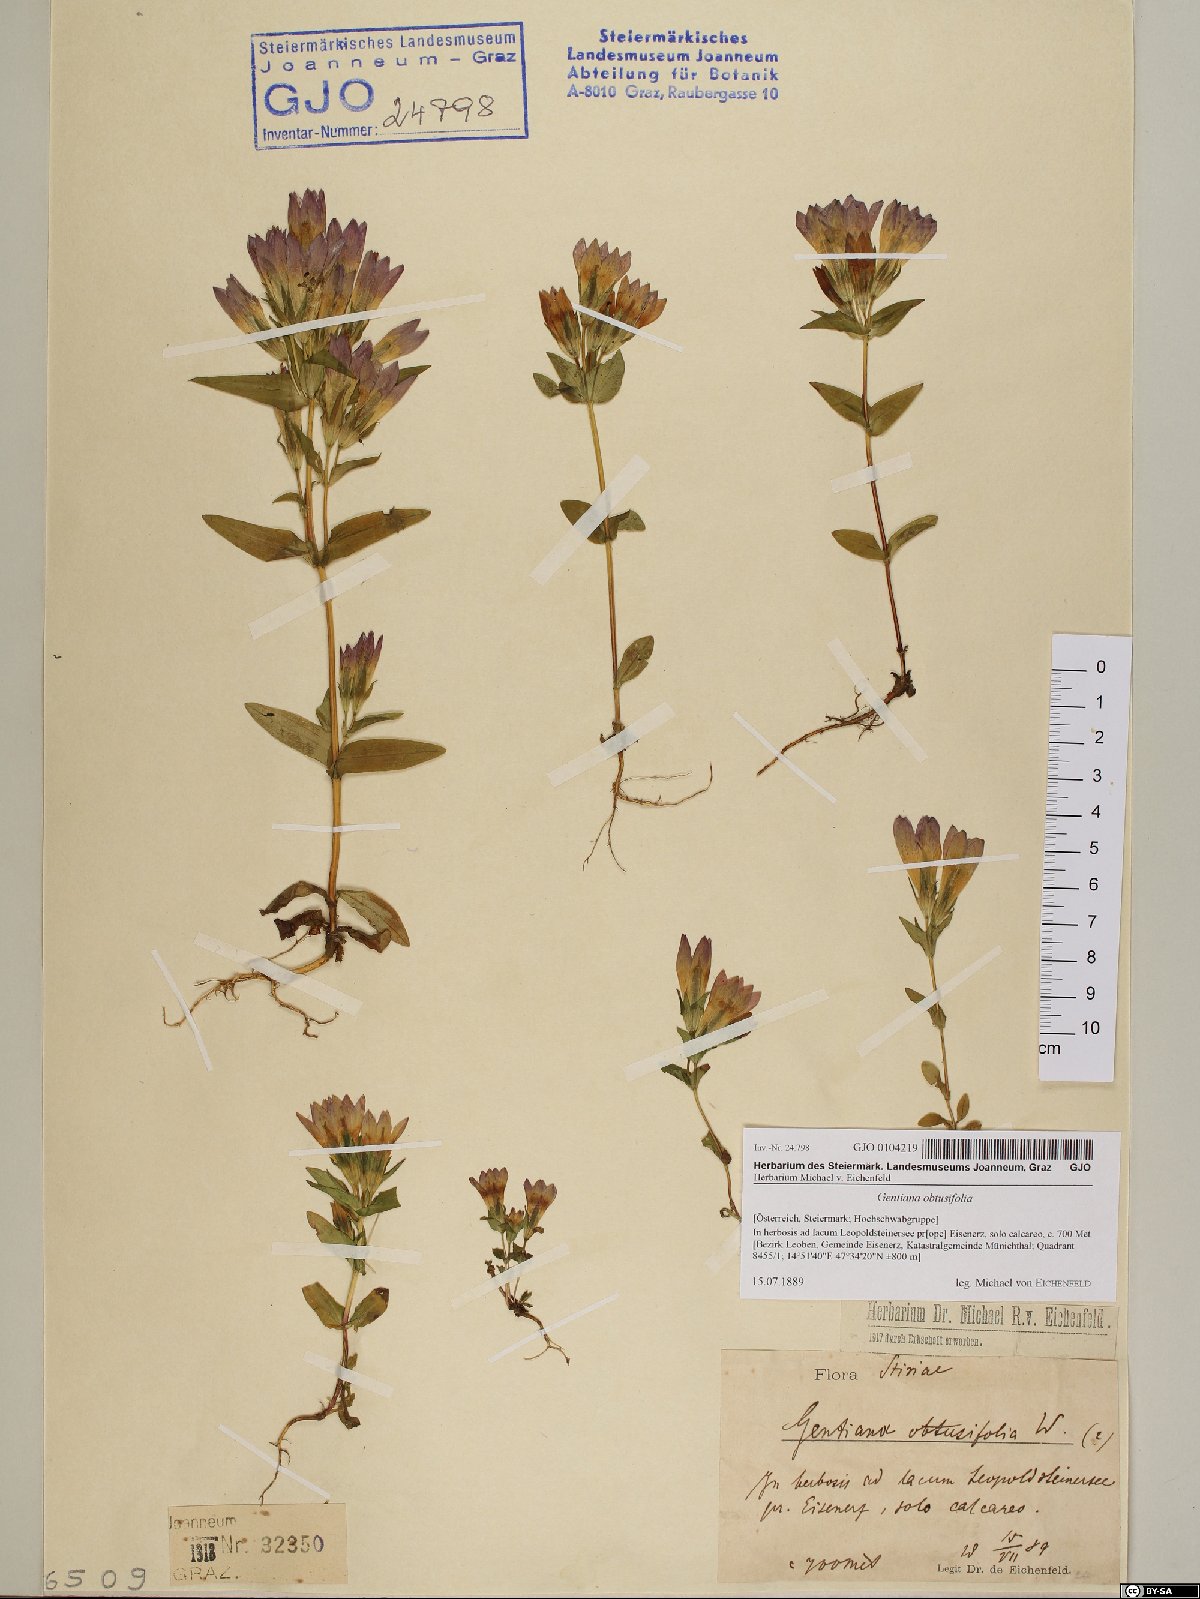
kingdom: Plantae
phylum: Tracheophyta
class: Magnoliopsida
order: Gentianales
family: Gentianaceae
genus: Gentianella
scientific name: Gentianella obtusifolia
